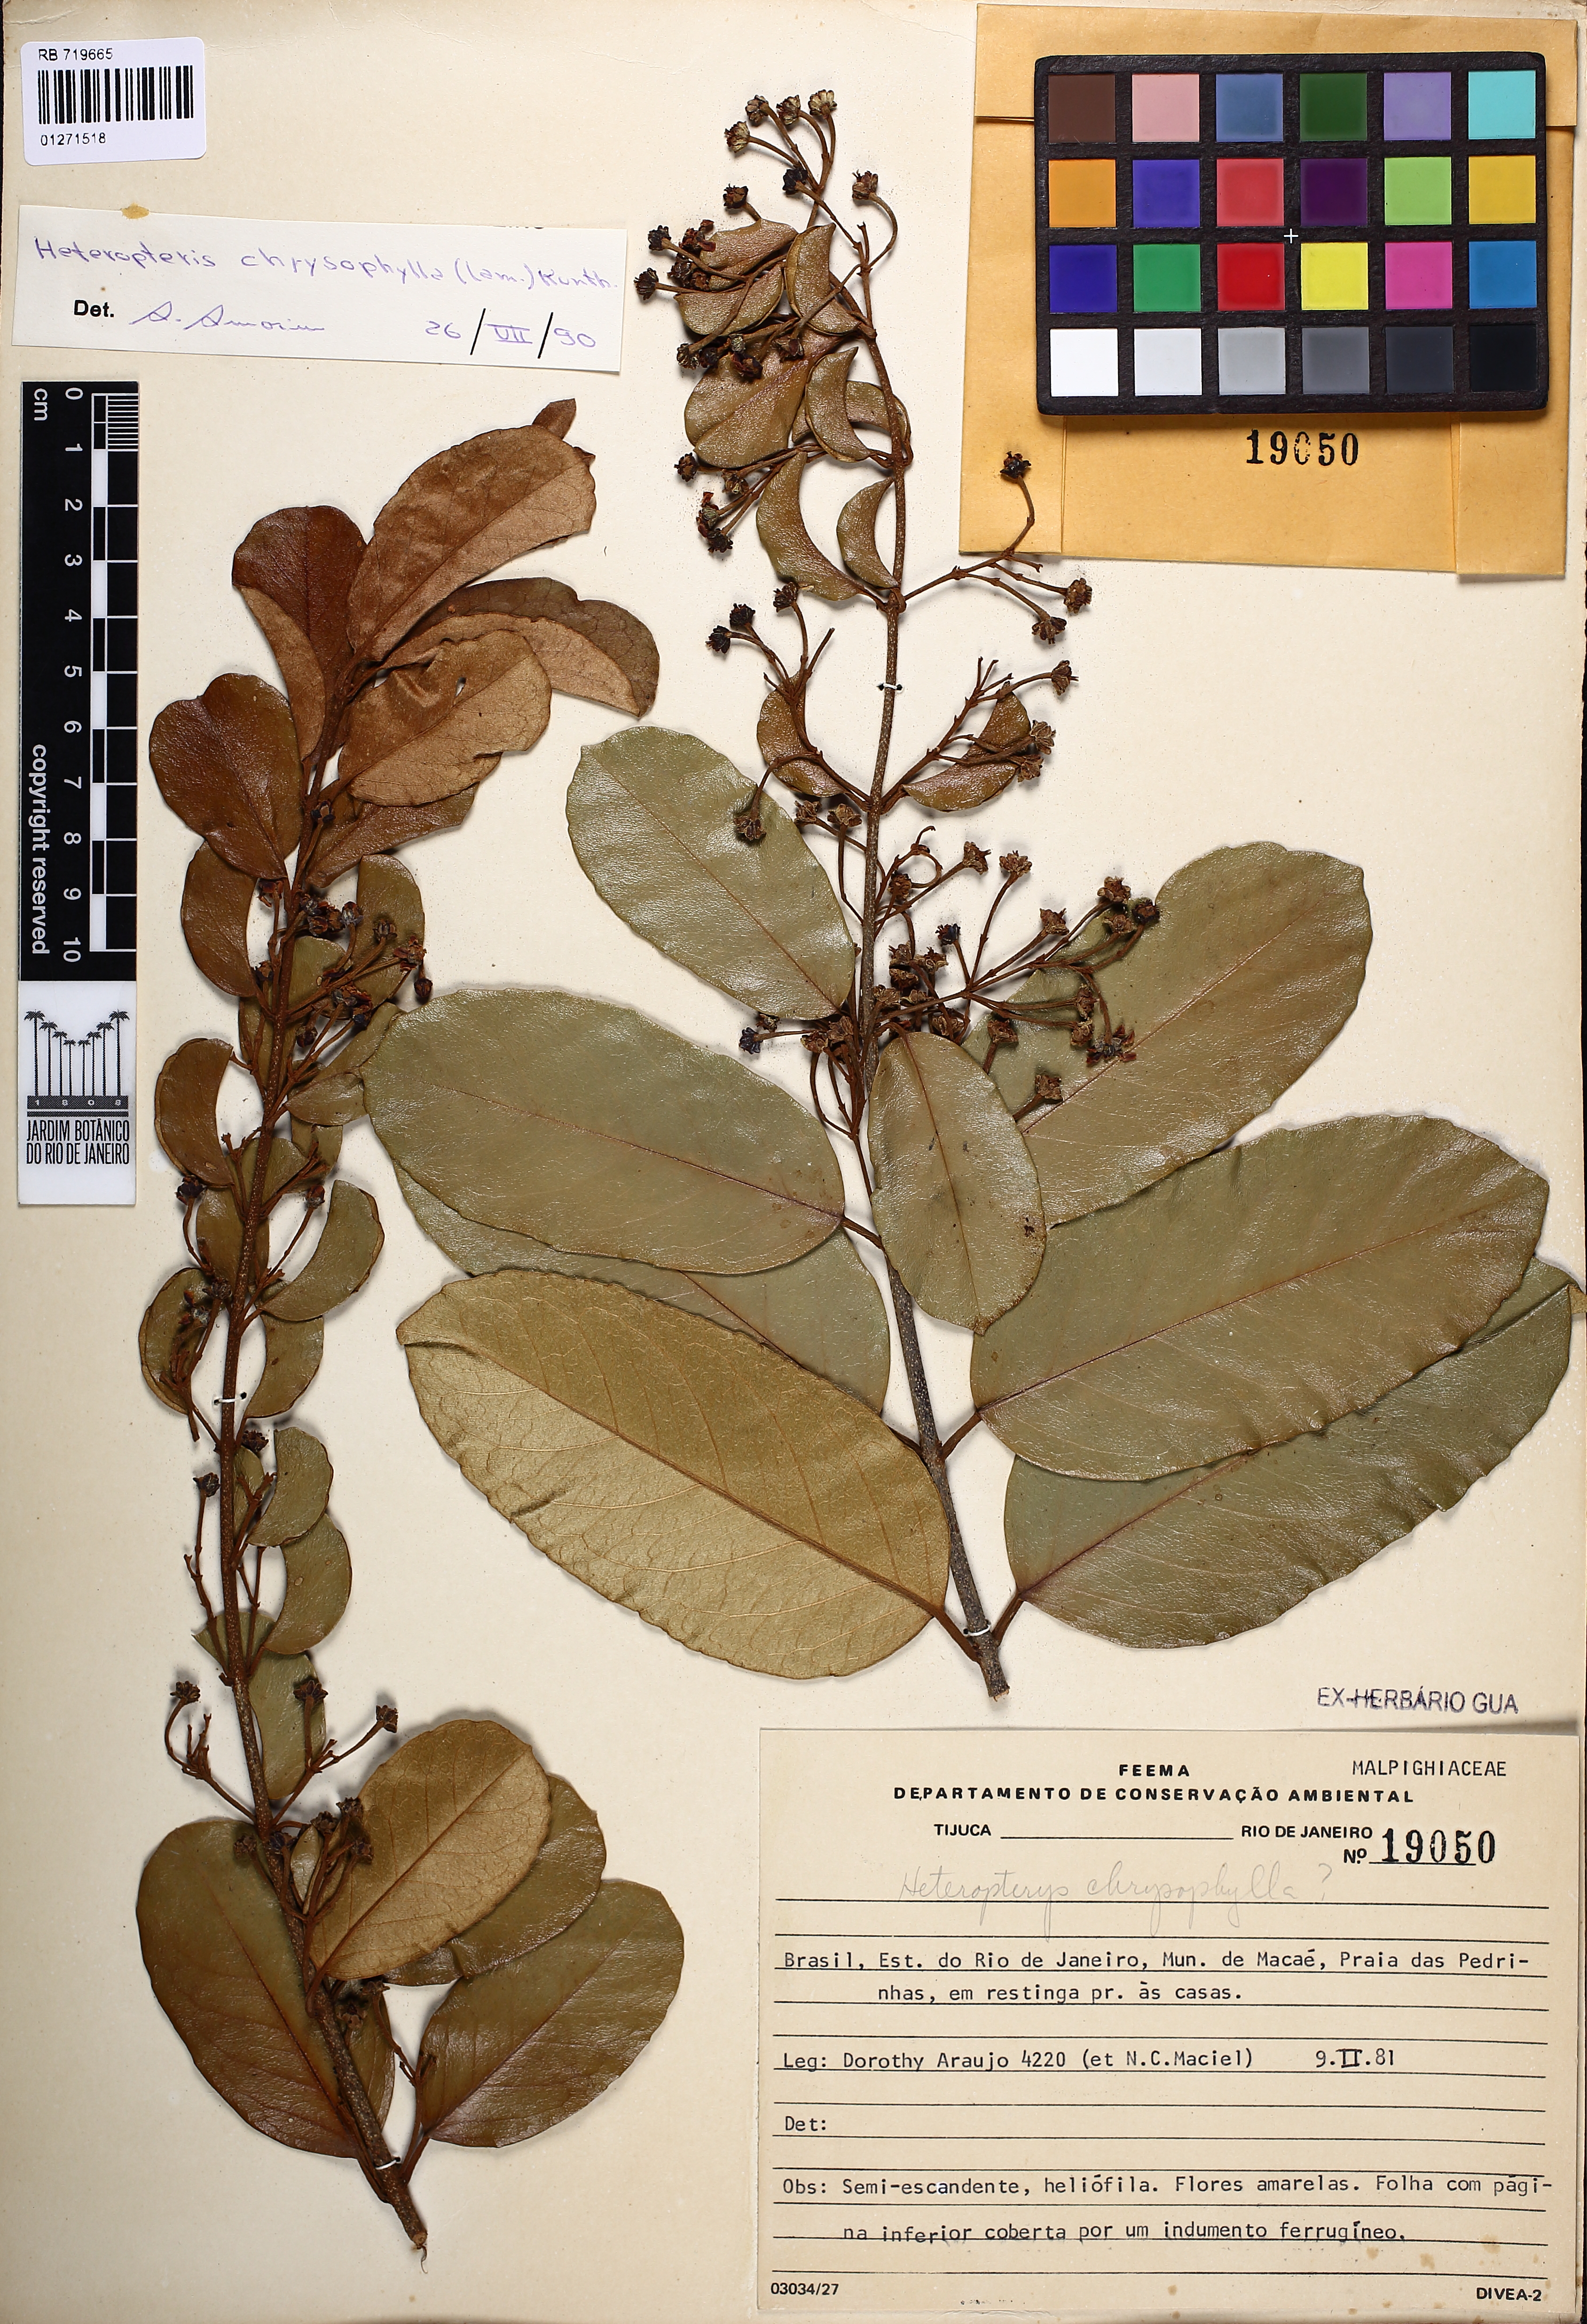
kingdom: Plantae
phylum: Tracheophyta
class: Magnoliopsida
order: Malpighiales
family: Malpighiaceae
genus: Heteropterys
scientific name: Heteropterys chrysophylla
